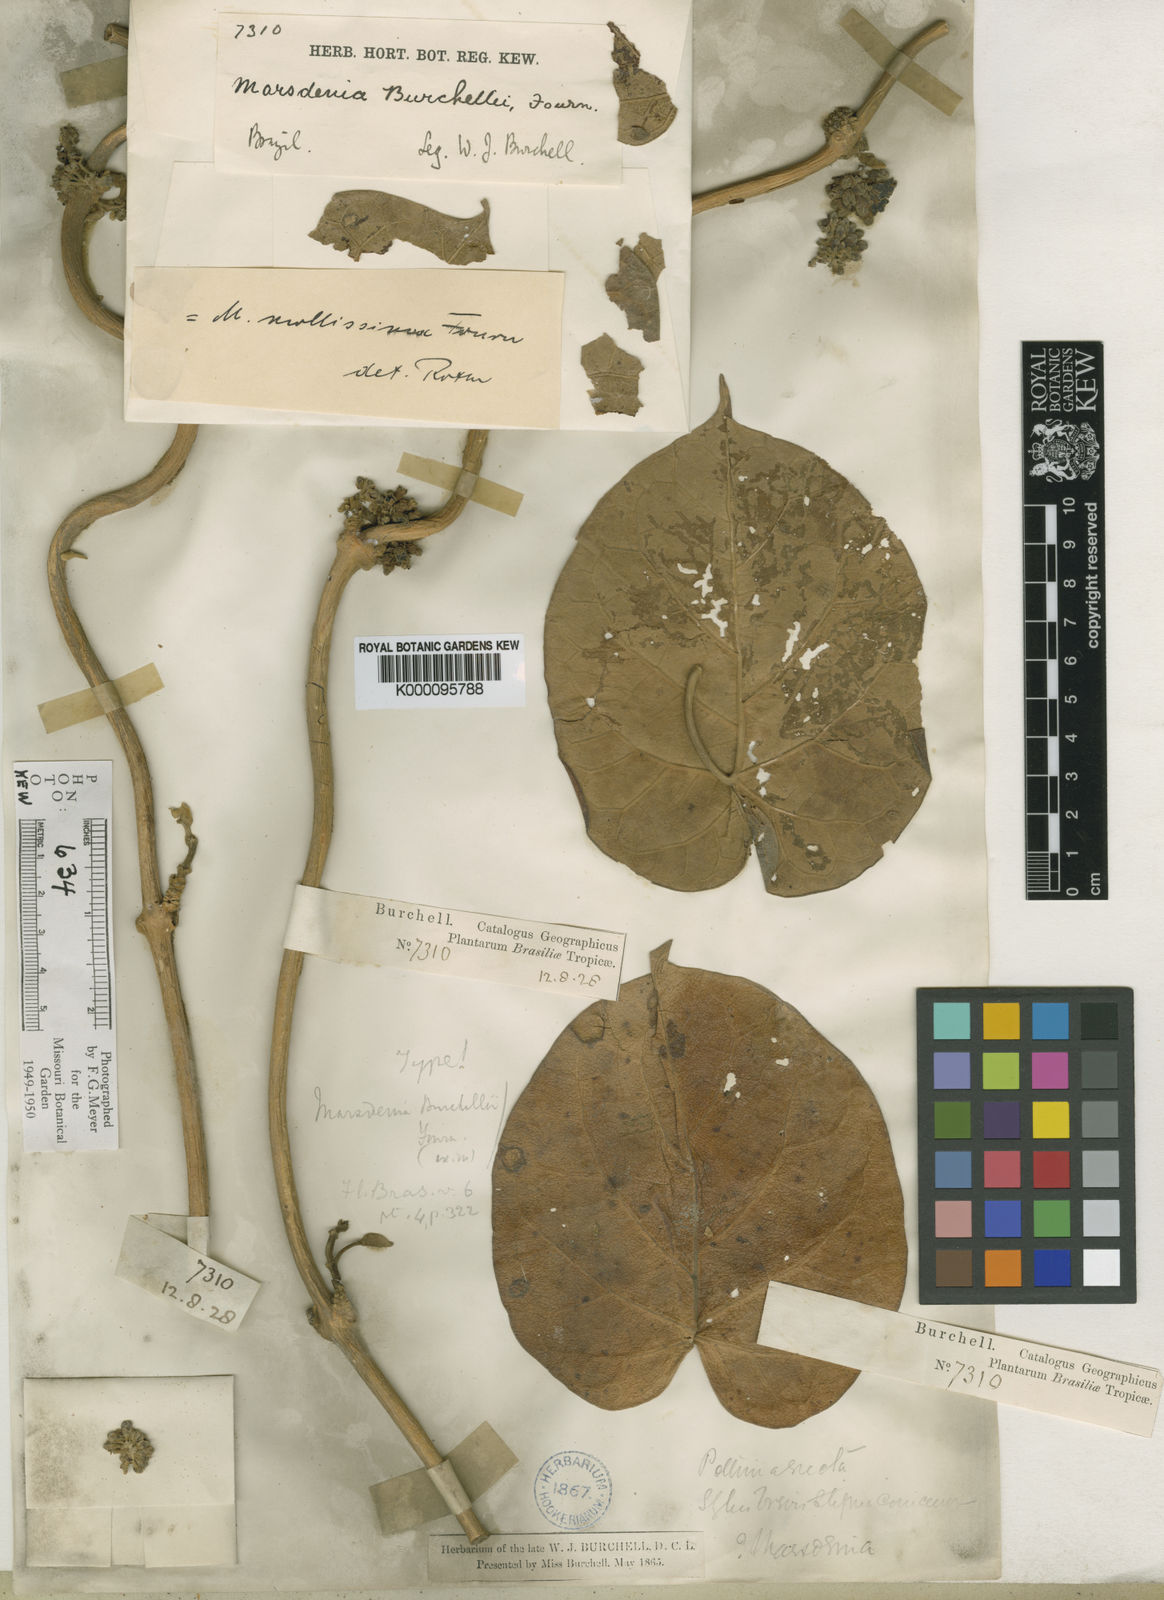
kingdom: Plantae
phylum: Tracheophyta
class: Magnoliopsida
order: Gentianales
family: Apocynaceae
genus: Ruehssia
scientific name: Ruehssia altissima
